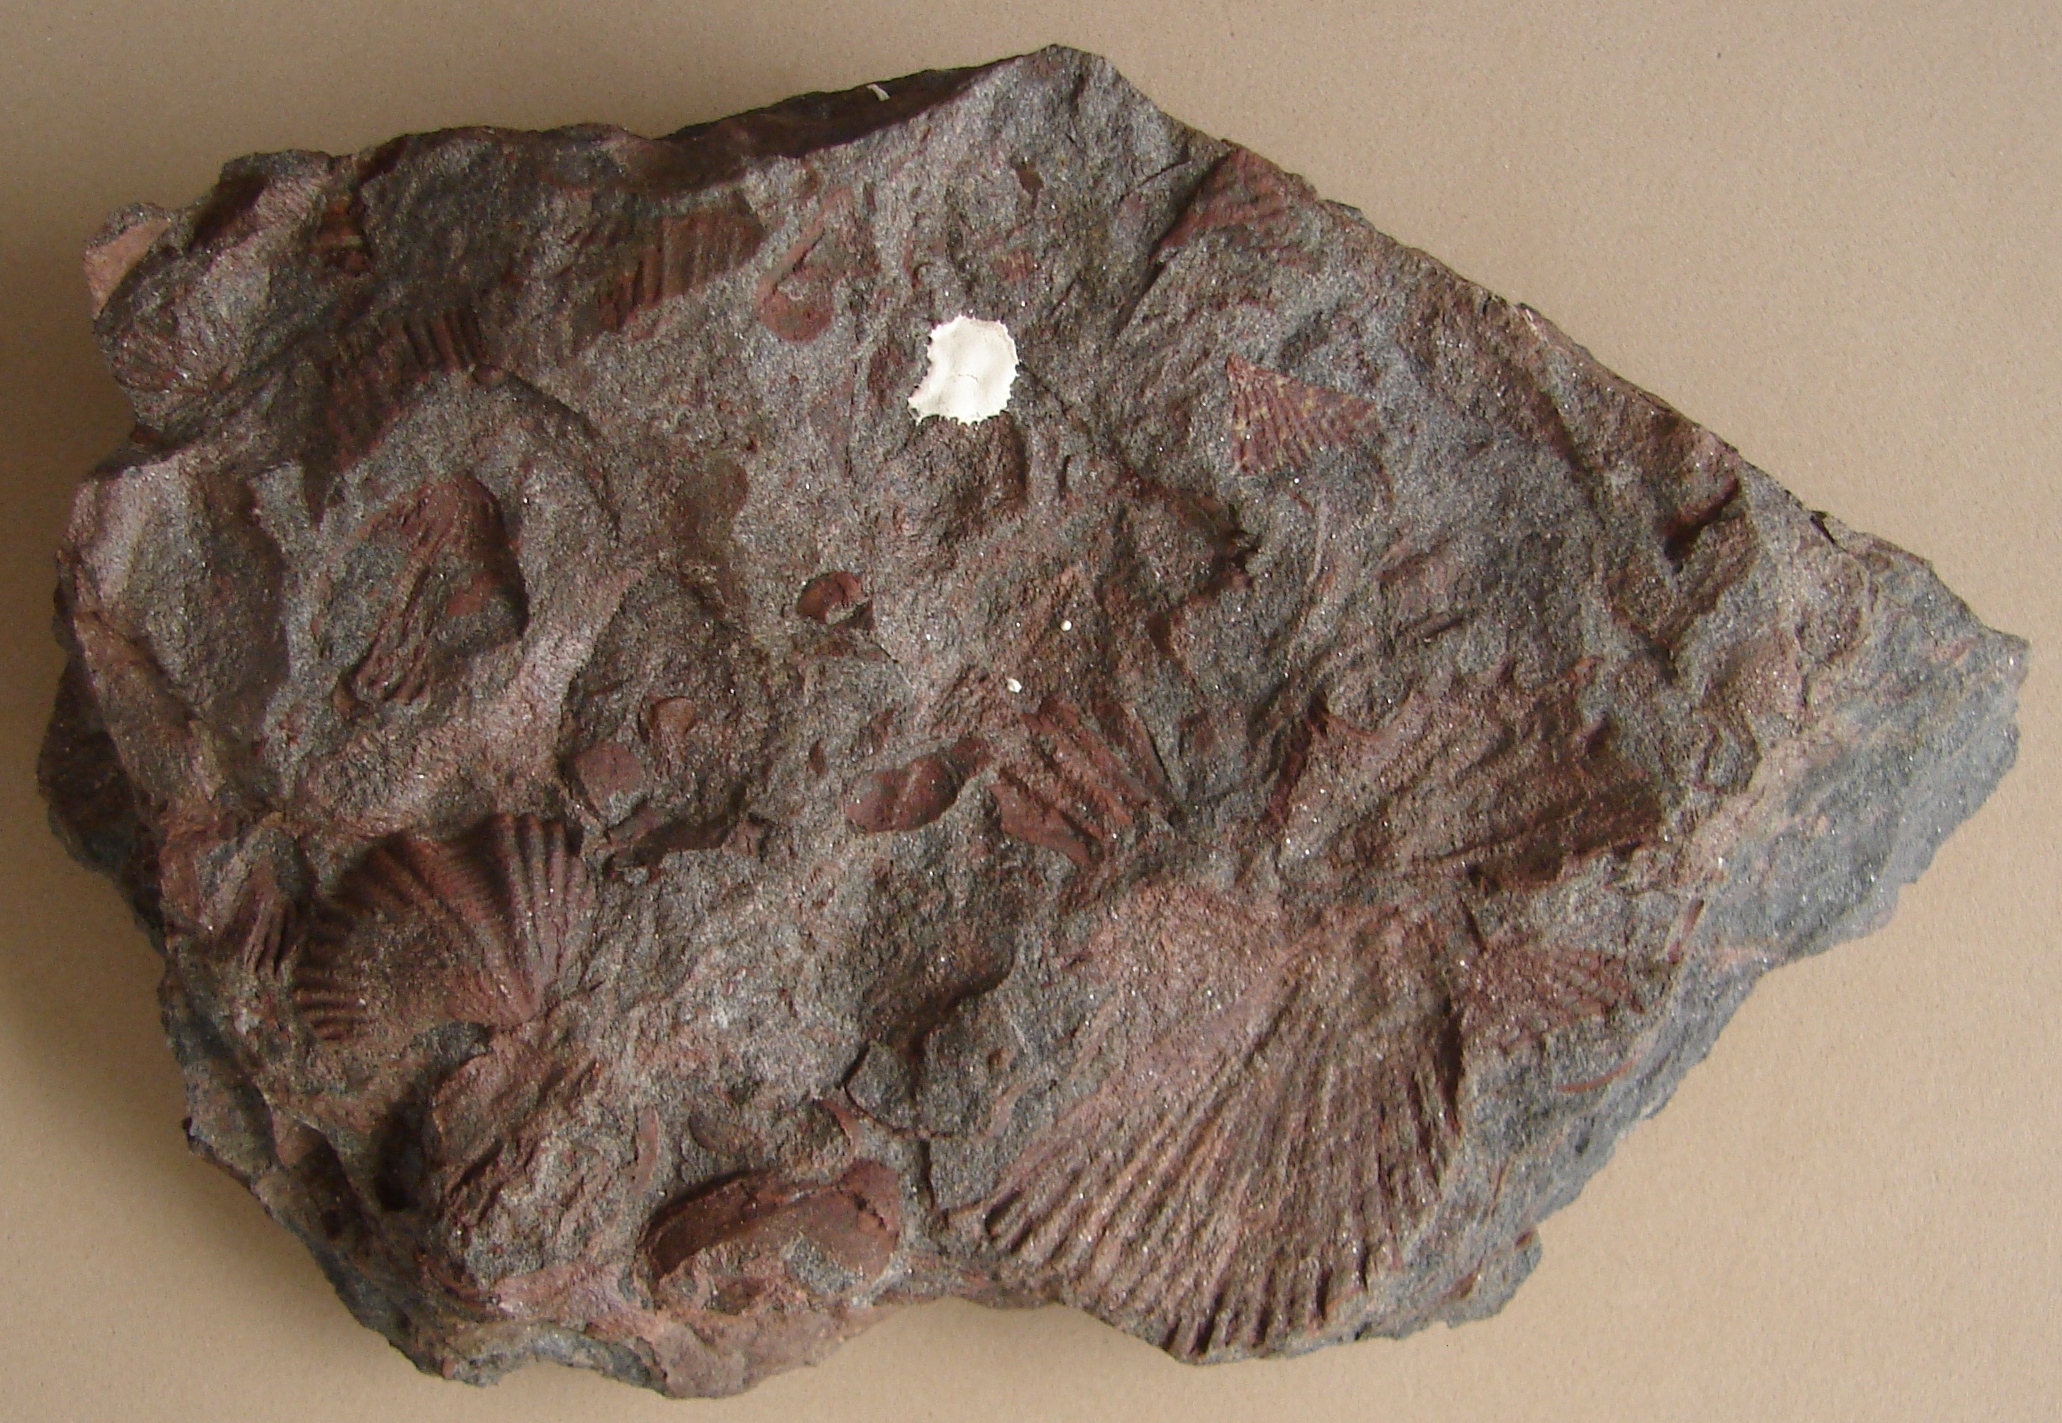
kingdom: Animalia
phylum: Brachiopoda
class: Rhynchonellata
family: Delthyrididae
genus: Brachyspirifer
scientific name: Brachyspirifer
